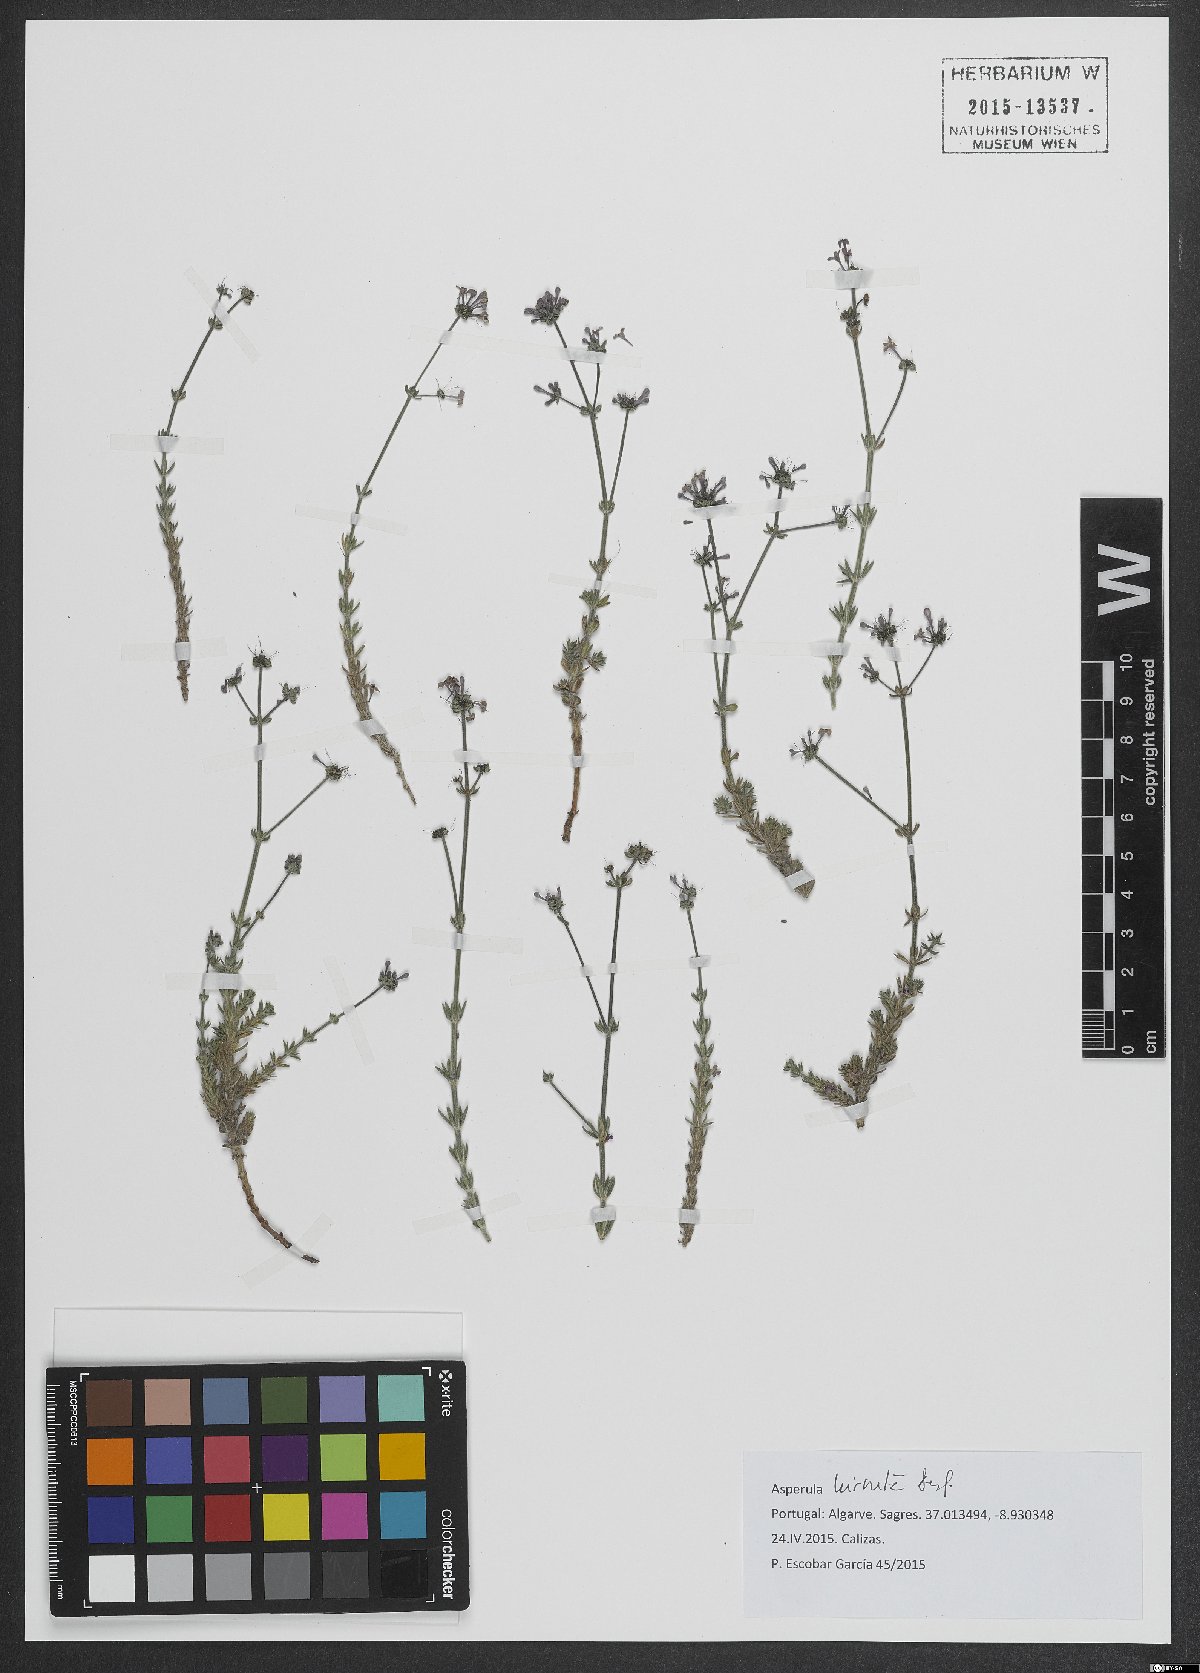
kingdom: Plantae
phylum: Tracheophyta
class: Magnoliopsida
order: Gentianales
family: Rubiaceae
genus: Hexaphylla
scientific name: Hexaphylla hirsuta
